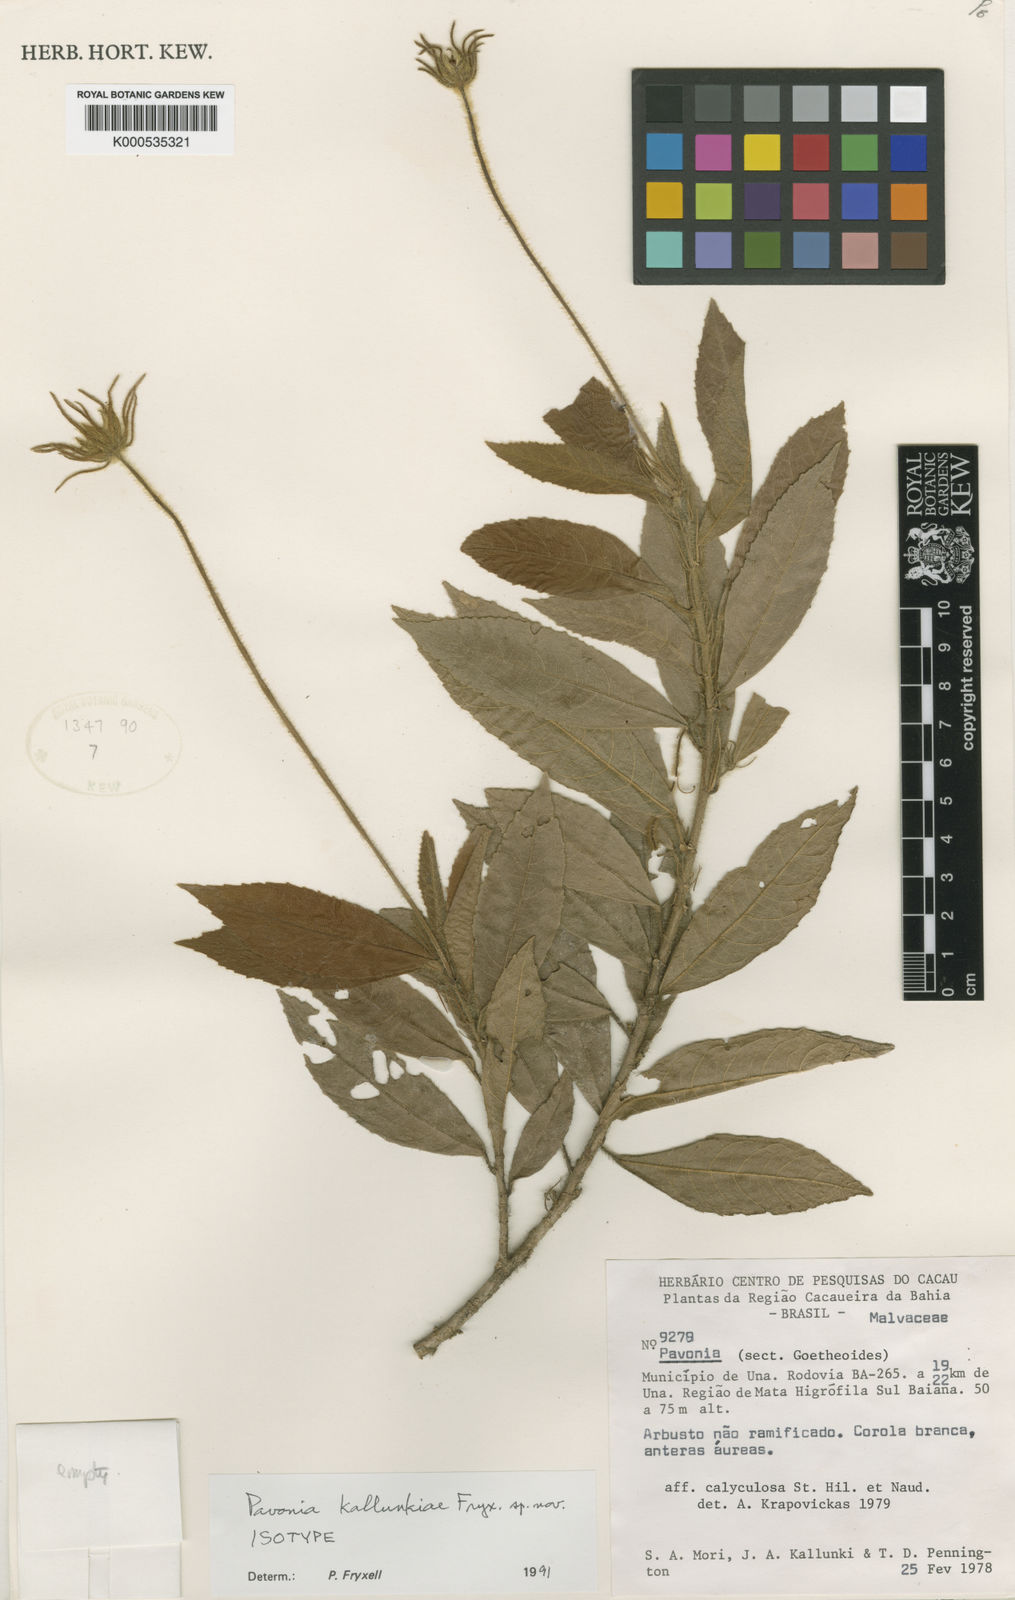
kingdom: Plantae
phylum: Tracheophyta
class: Magnoliopsida
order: Malvales
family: Malvaceae
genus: Pavonia
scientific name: Pavonia ciliata
